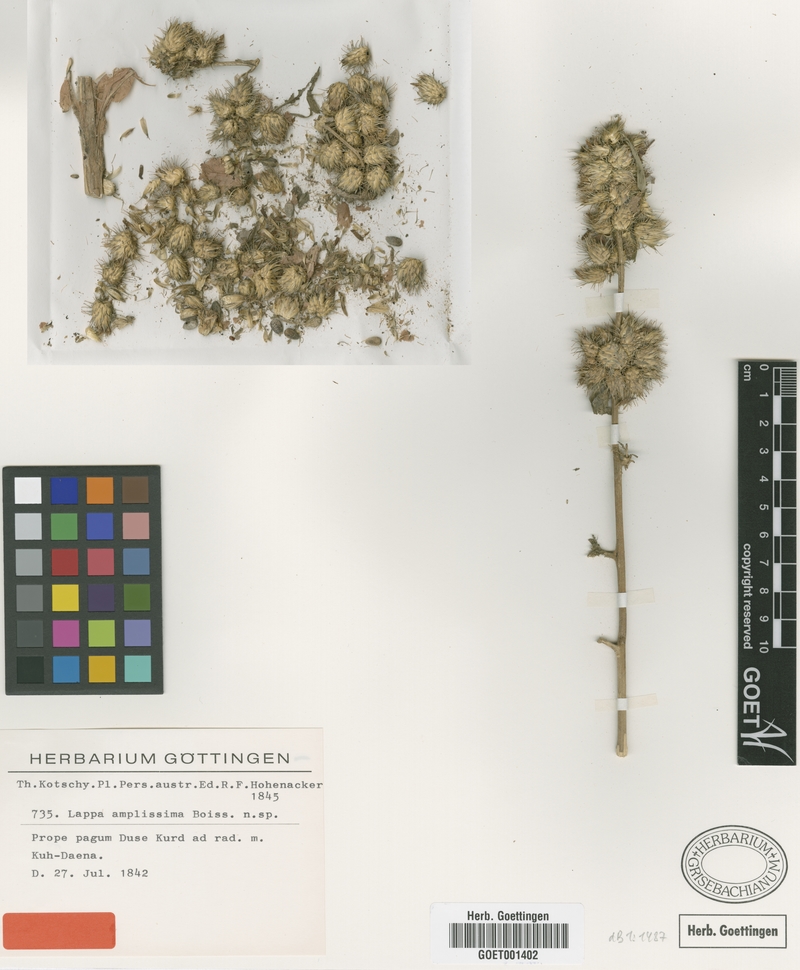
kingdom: Plantae
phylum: Tracheophyta
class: Magnoliopsida
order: Asterales
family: Asteraceae
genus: Arctium
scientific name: Arctium amplissimum
